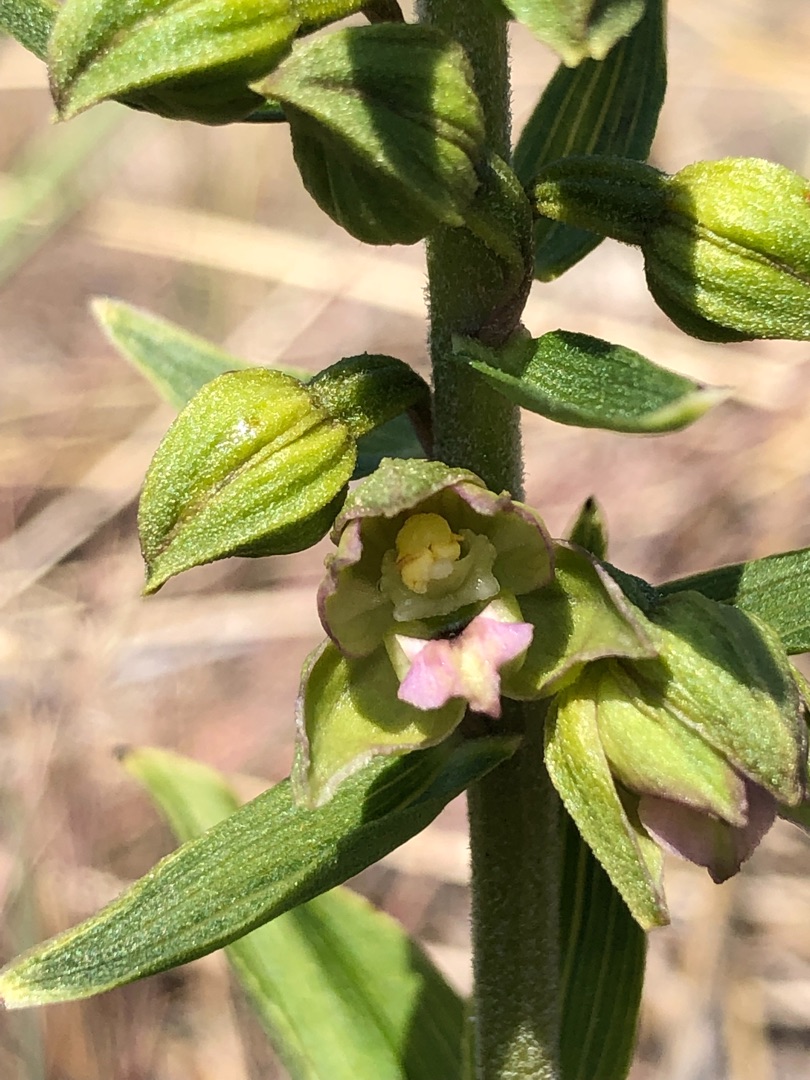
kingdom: Plantae
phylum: Tracheophyta
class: Liliopsida
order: Asparagales
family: Orchidaceae
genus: Epipactis
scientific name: Epipactis helleborine
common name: Skov-hullæbe
